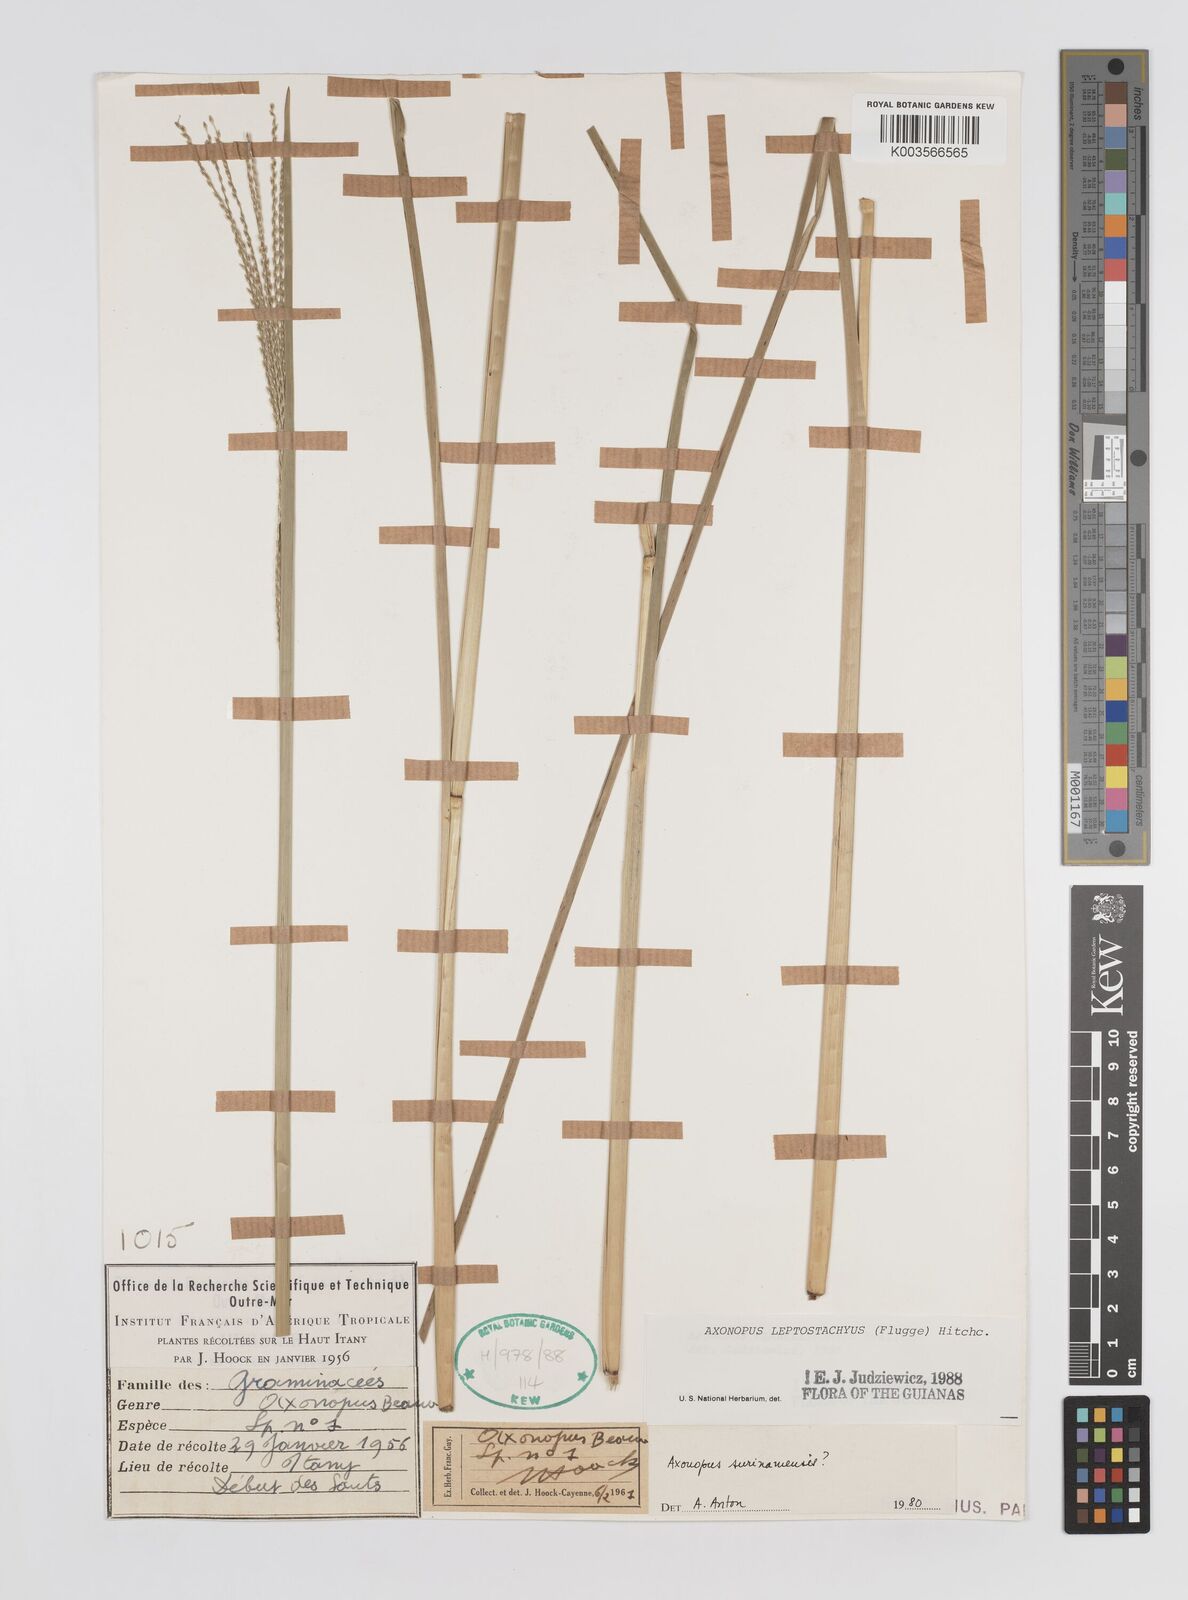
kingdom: Plantae
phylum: Tracheophyta
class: Liliopsida
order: Poales
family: Poaceae
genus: Axonopus
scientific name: Axonopus leptostachyus
